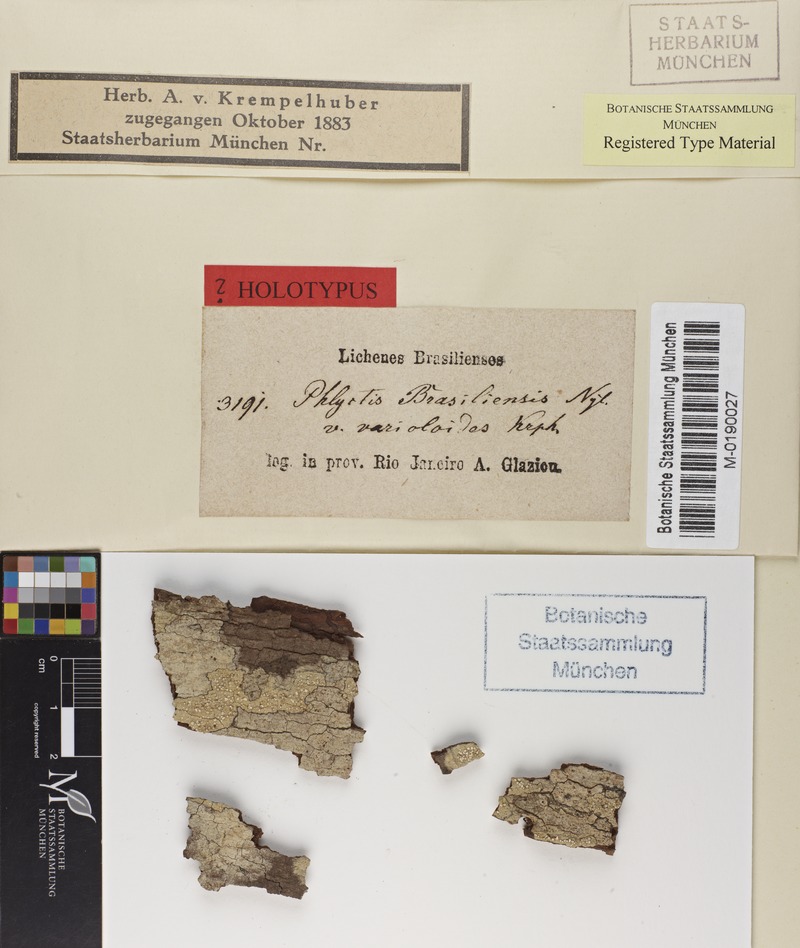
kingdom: Fungi
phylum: Ascomycota
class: Lecanoromycetes
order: Ostropales
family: Phlyctidaceae
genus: Phlyctella
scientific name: Phlyctella brasiliensis
